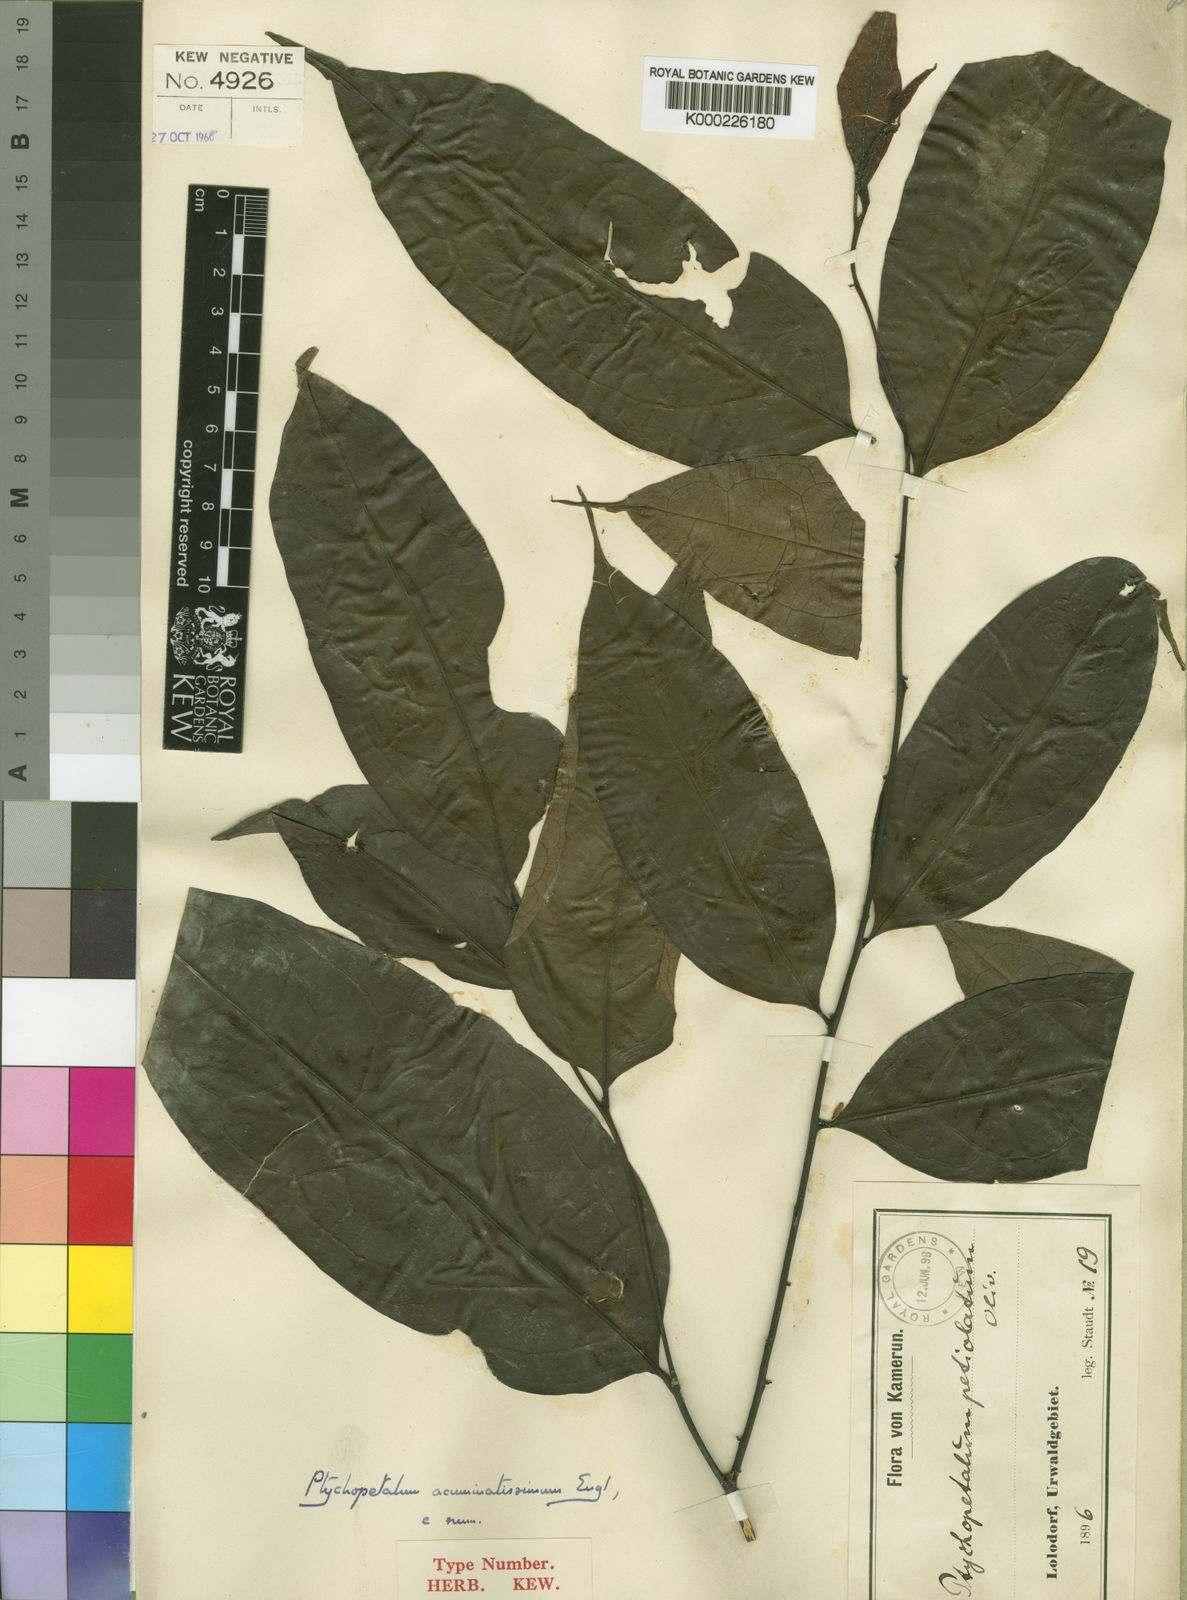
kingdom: Plantae
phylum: Tracheophyta
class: Magnoliopsida
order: Santalales
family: Olacaceae
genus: Ptychopetalum
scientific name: Ptychopetalum petiolatum
